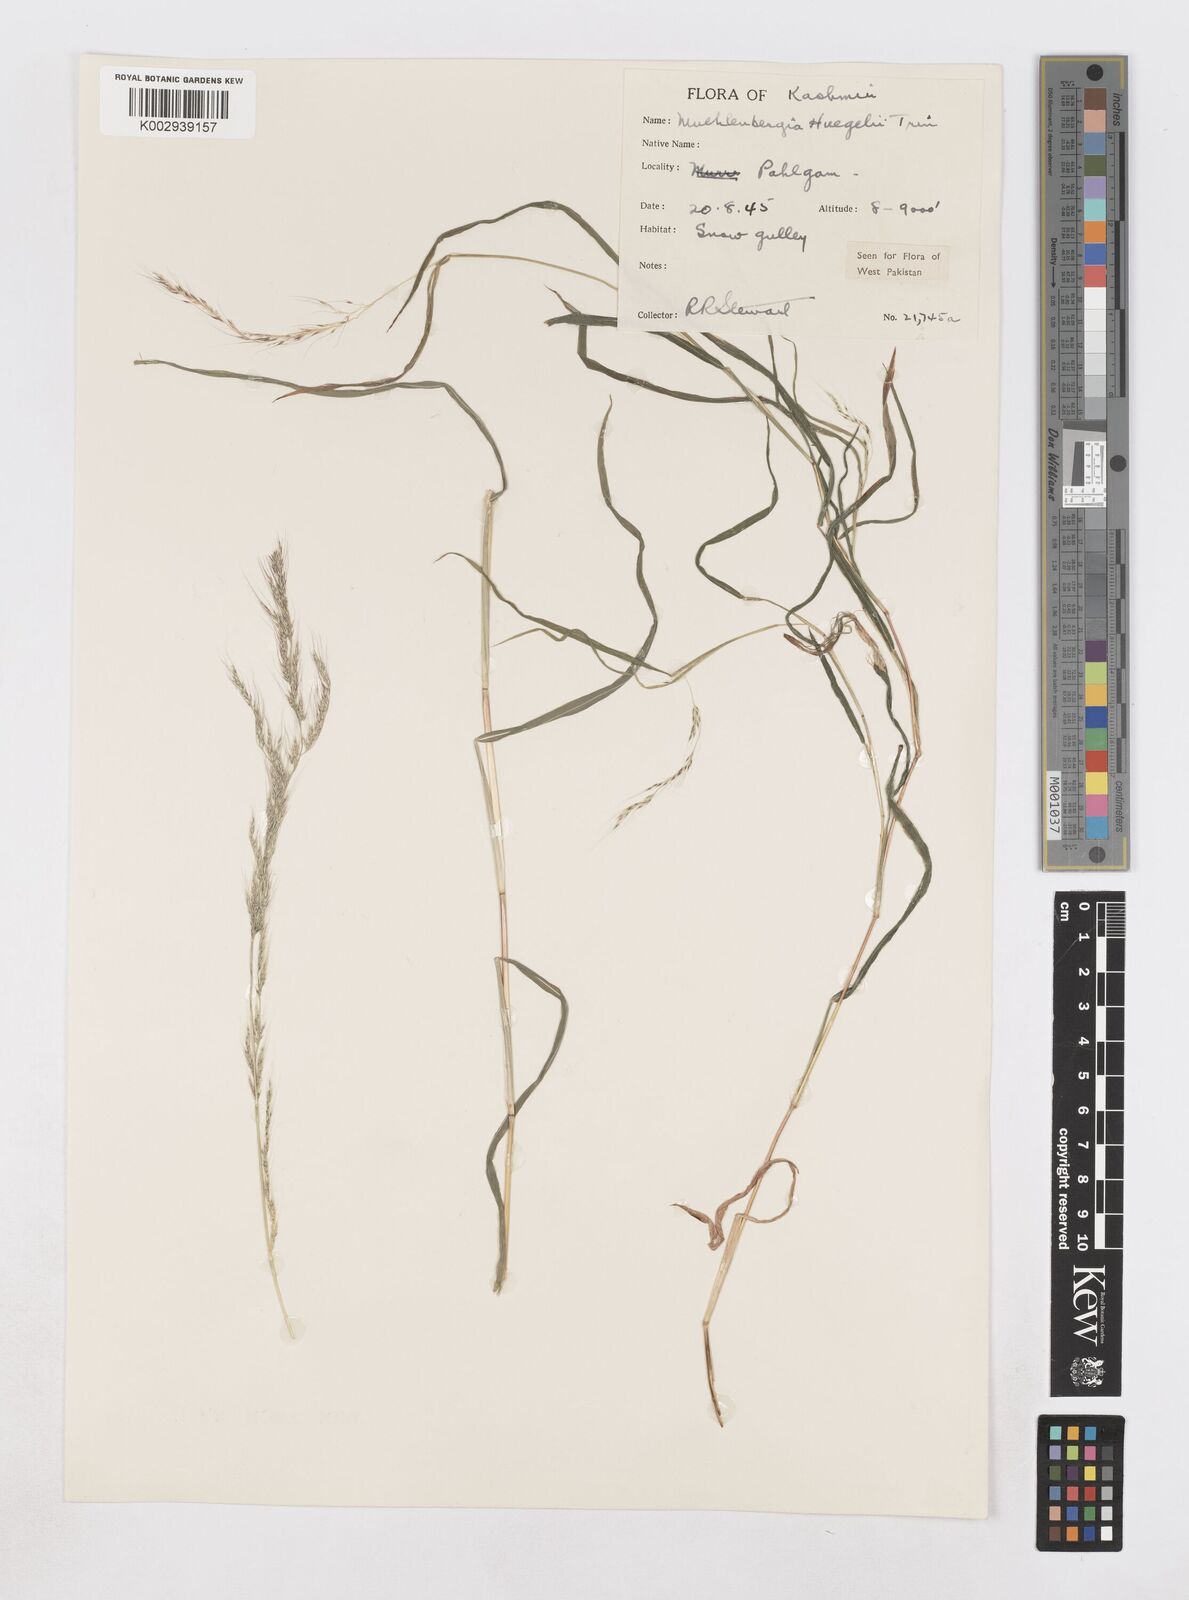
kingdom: Plantae
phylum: Tracheophyta
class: Liliopsida
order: Poales
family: Poaceae
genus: Muhlenbergia
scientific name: Muhlenbergia huegelii
